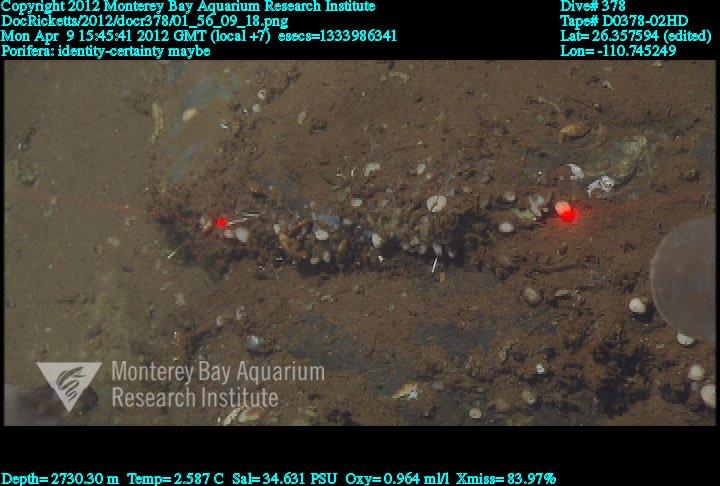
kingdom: Animalia
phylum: Porifera
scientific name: Porifera
